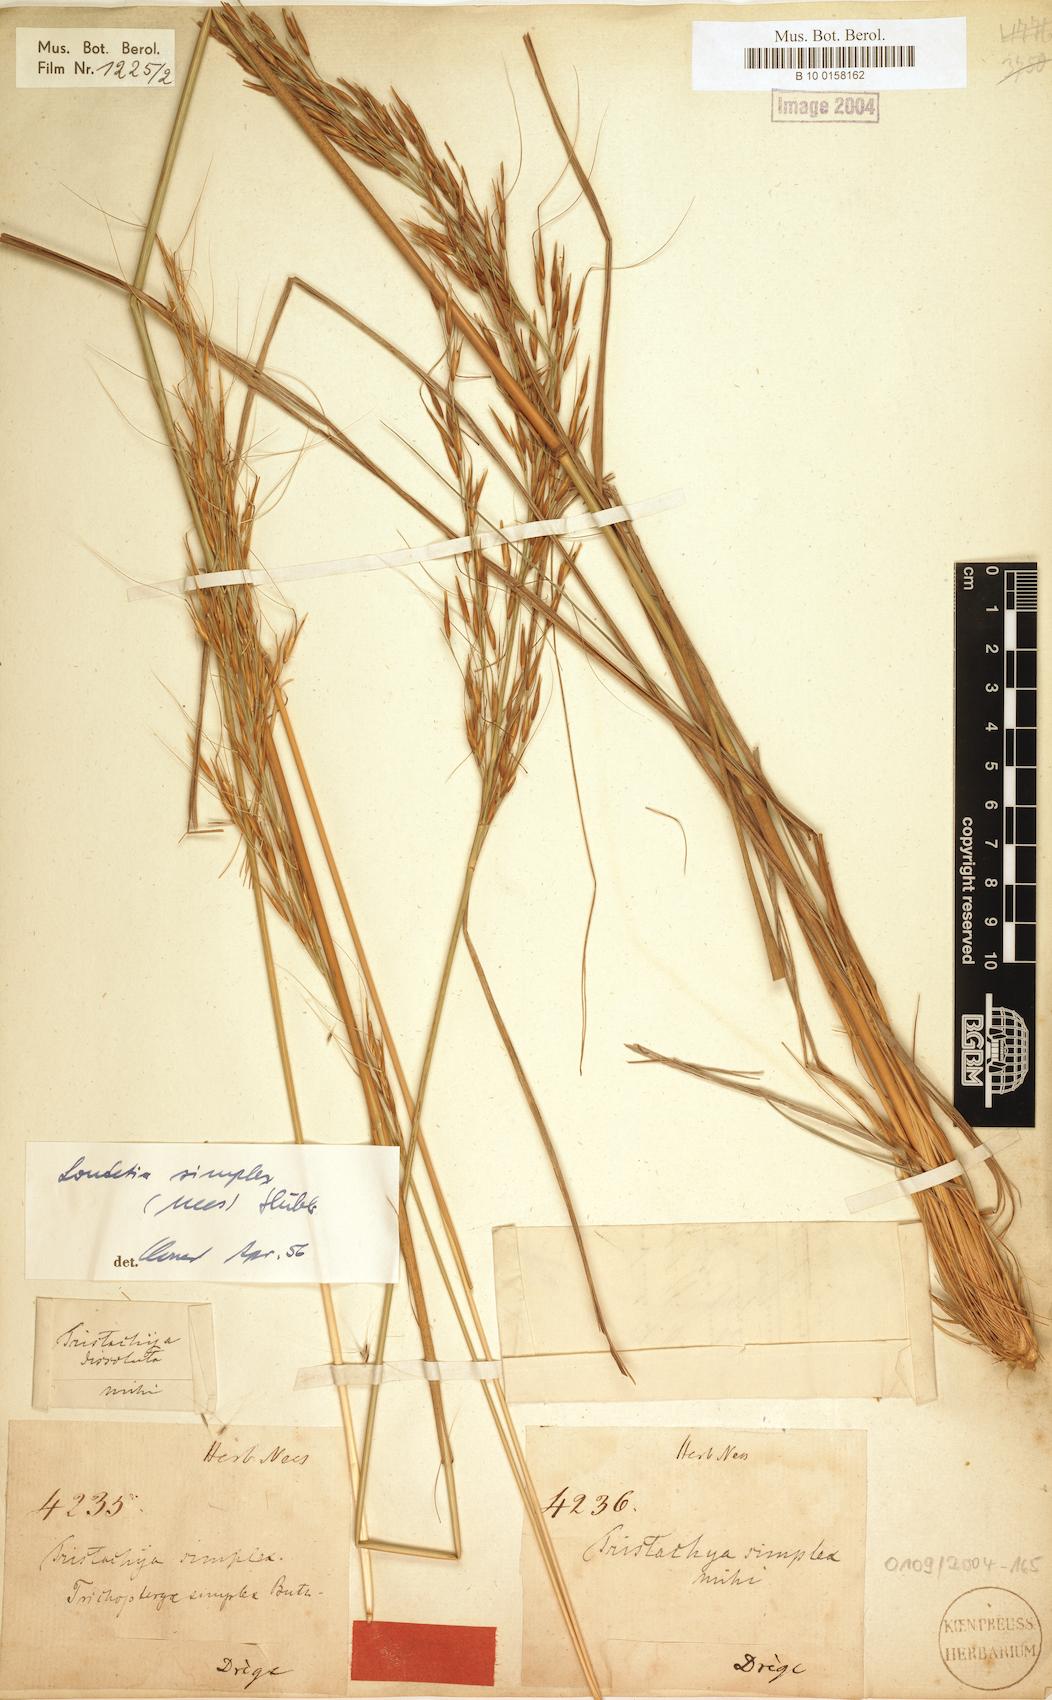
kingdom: Plantae
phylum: Tracheophyta
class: Liliopsida
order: Poales
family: Poaceae
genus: Loudetia
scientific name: Loudetia simplex
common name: Common russet grass
